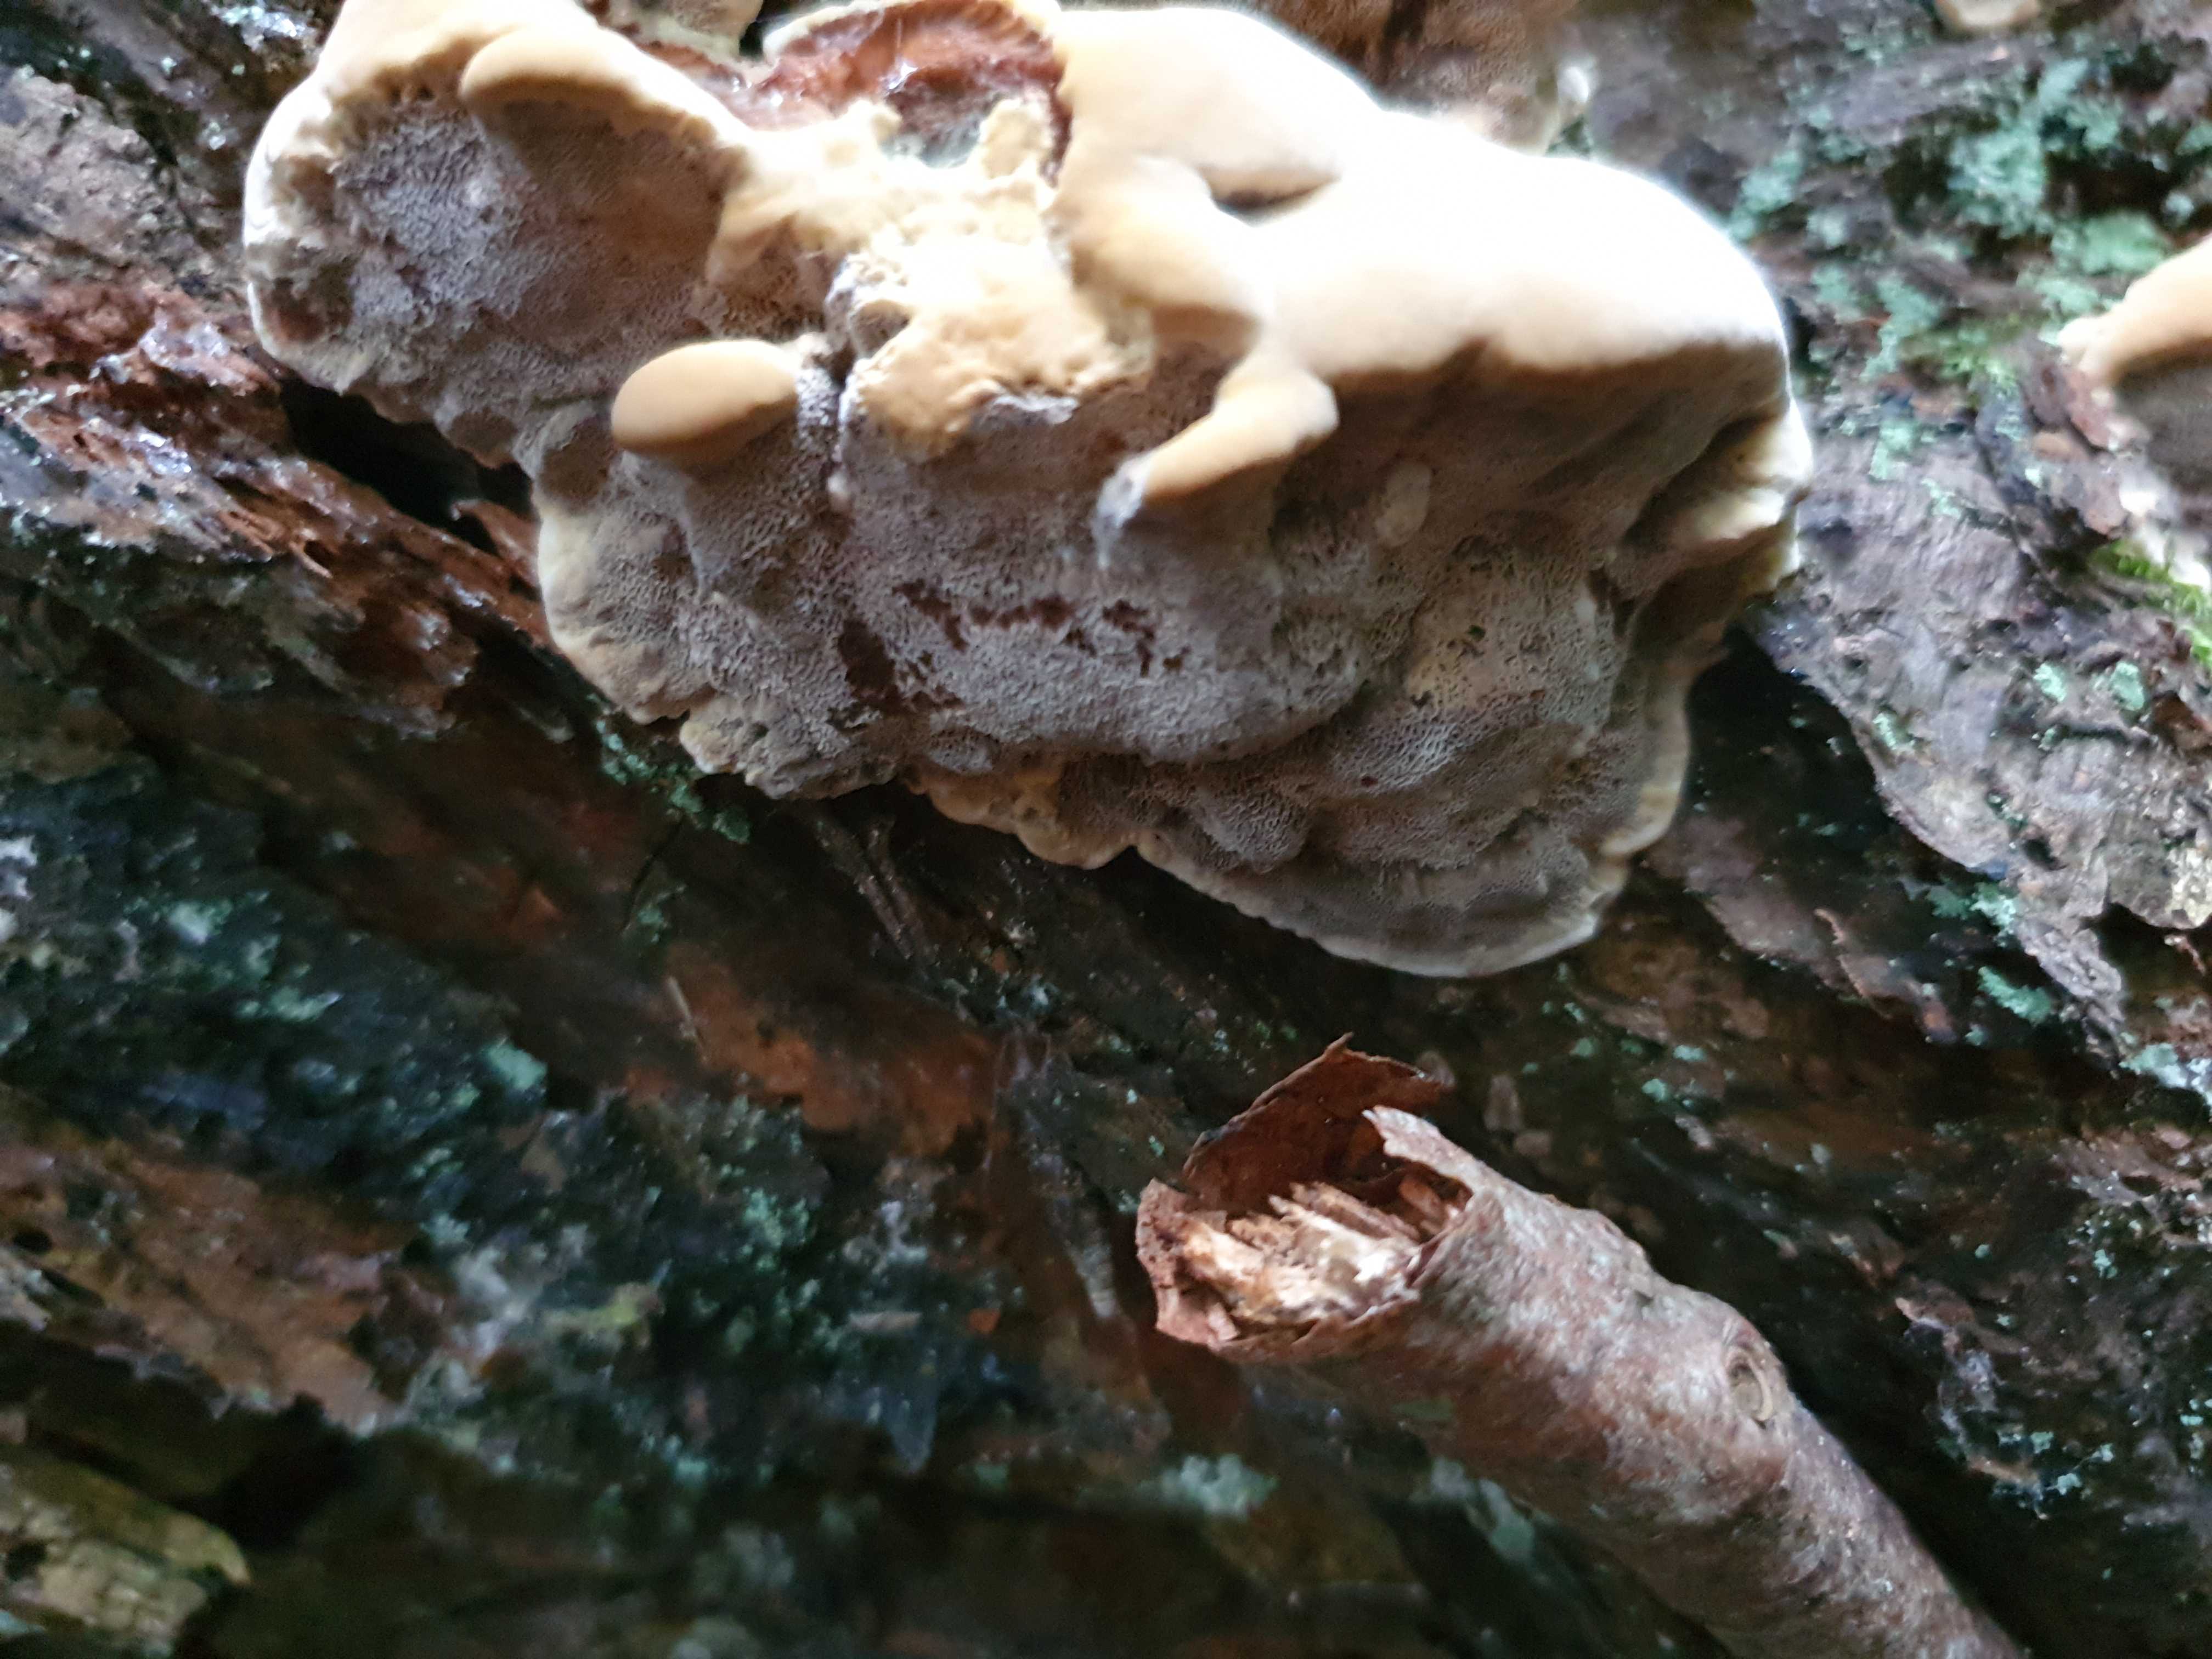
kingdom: Fungi
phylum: Basidiomycota
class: Agaricomycetes
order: Hymenochaetales
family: Hymenochaetaceae
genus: Xanthoporia
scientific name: Xanthoporia radiata
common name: elle-spejlporesvamp
